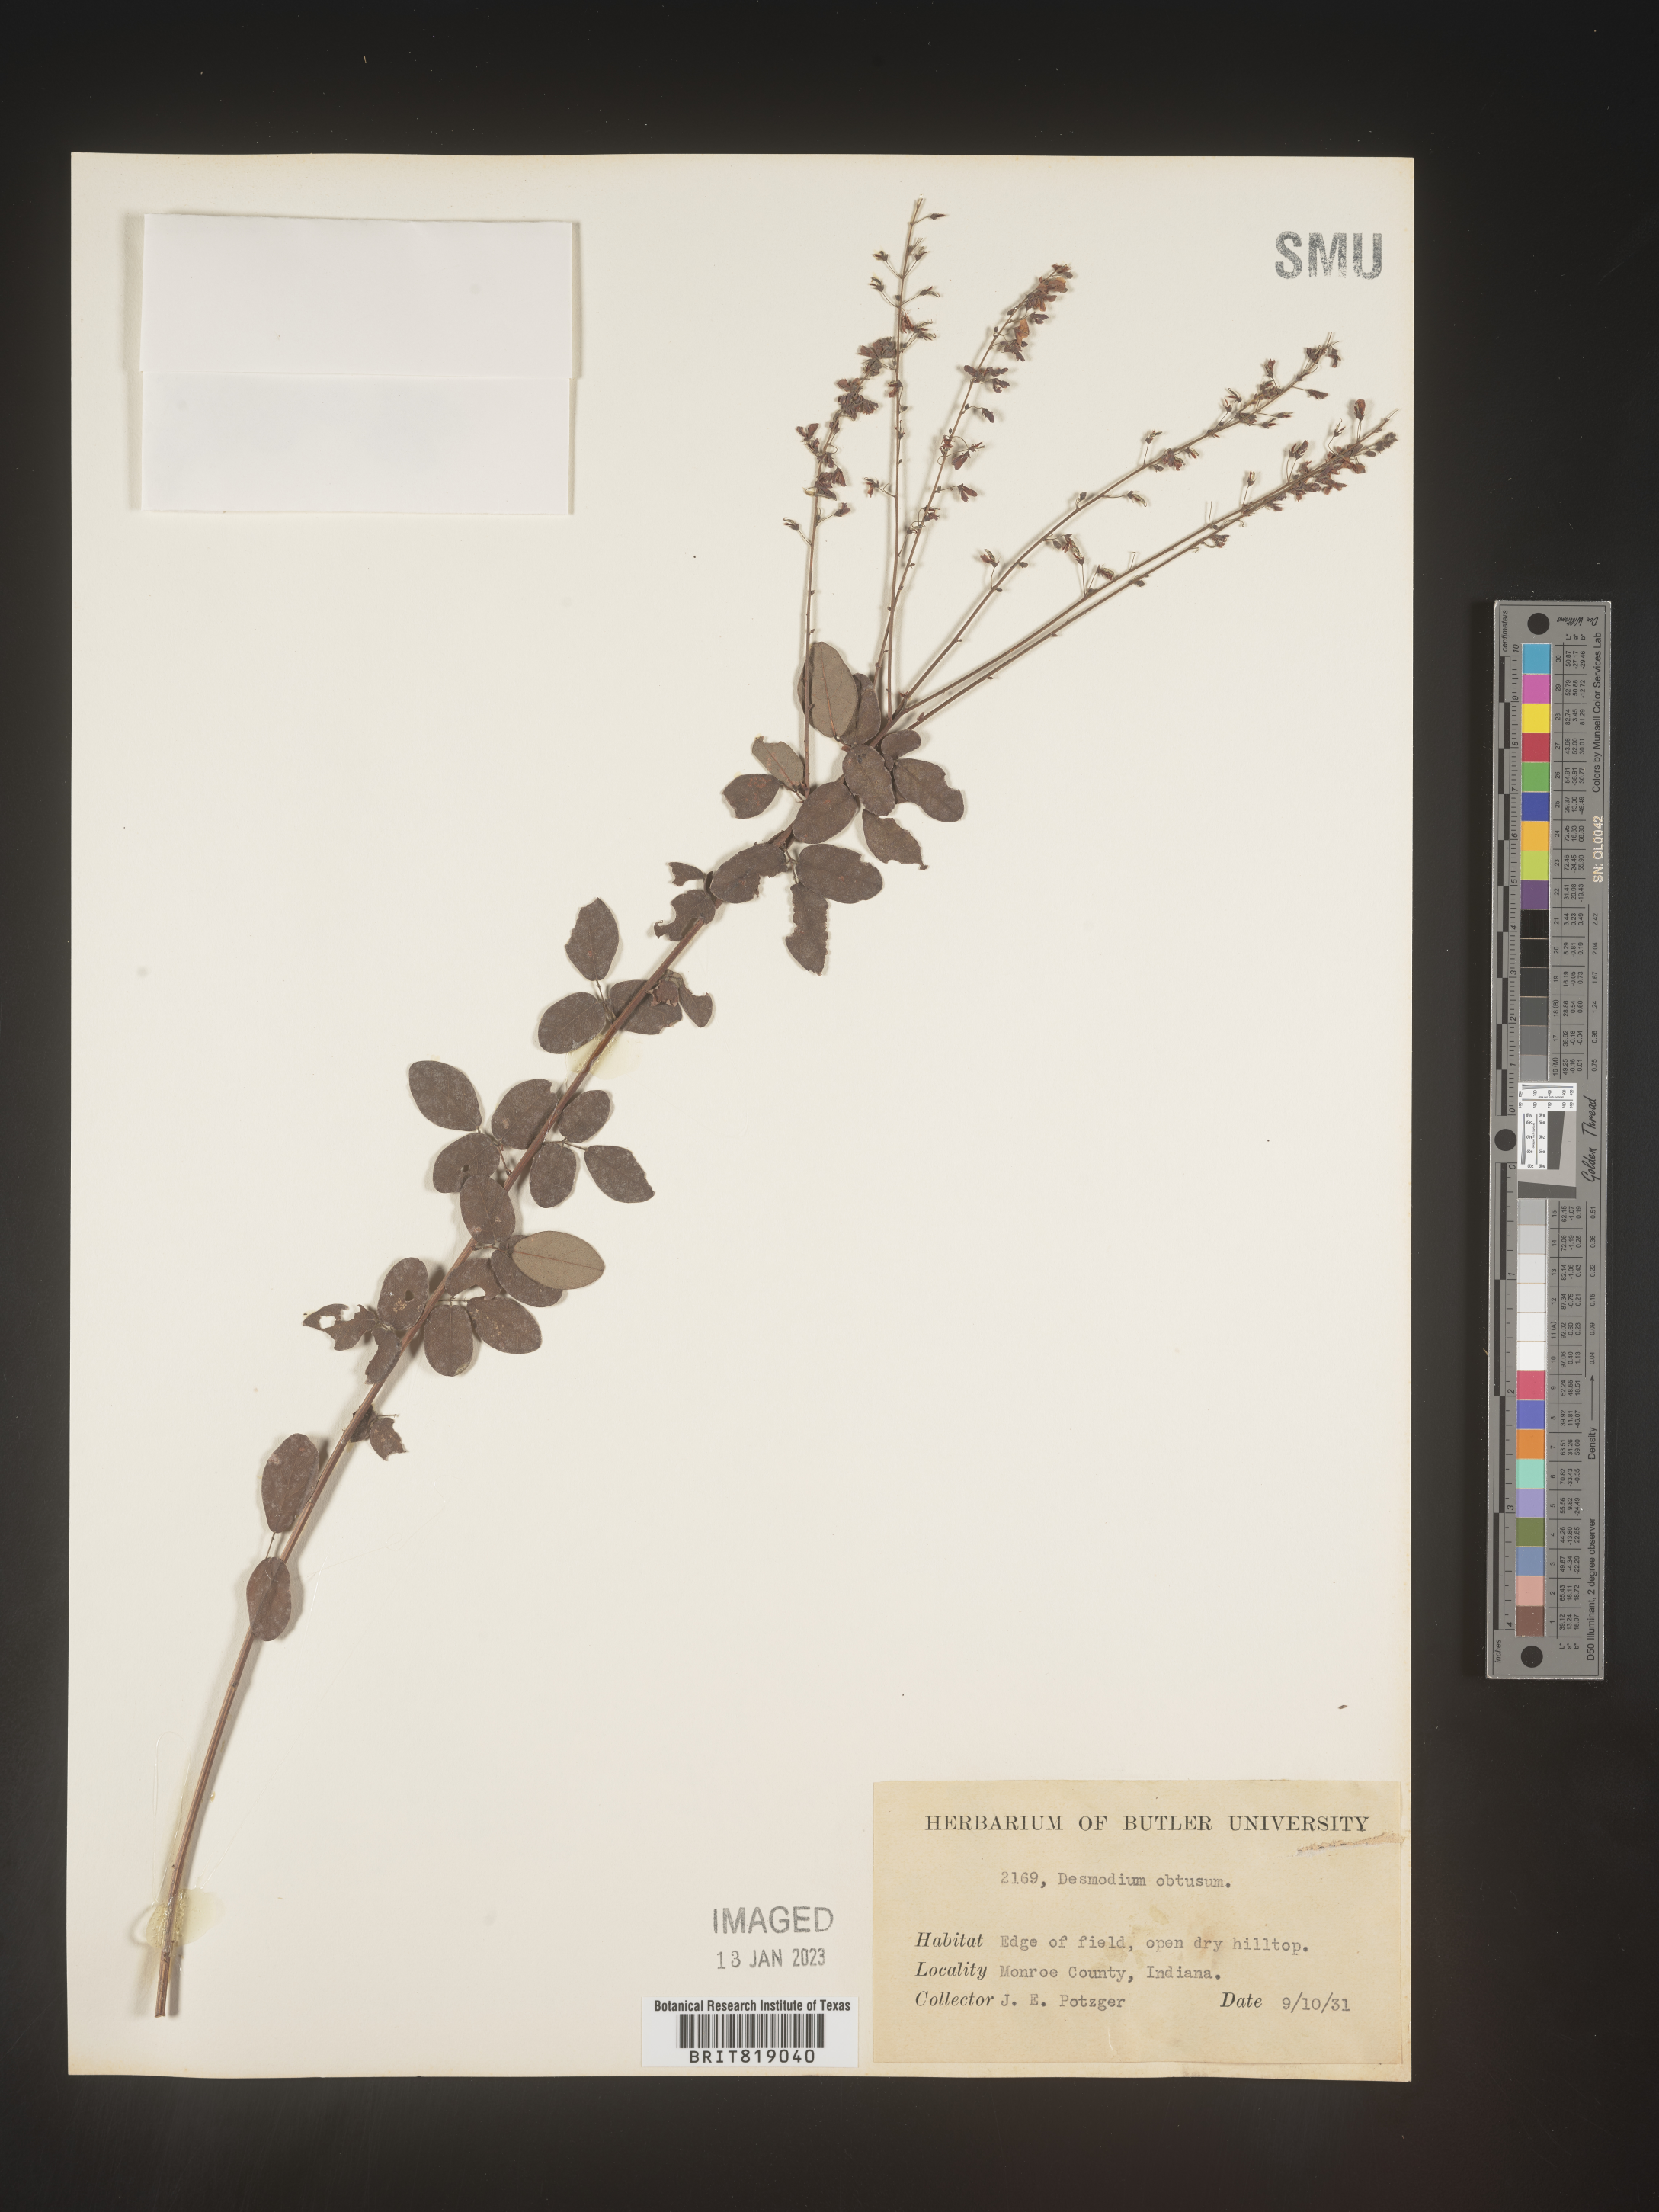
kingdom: Plantae
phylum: Tracheophyta
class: Magnoliopsida
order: Fabales
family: Fabaceae
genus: Desmodium
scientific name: Desmodium obtusum
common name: Stiff tick trefoil
